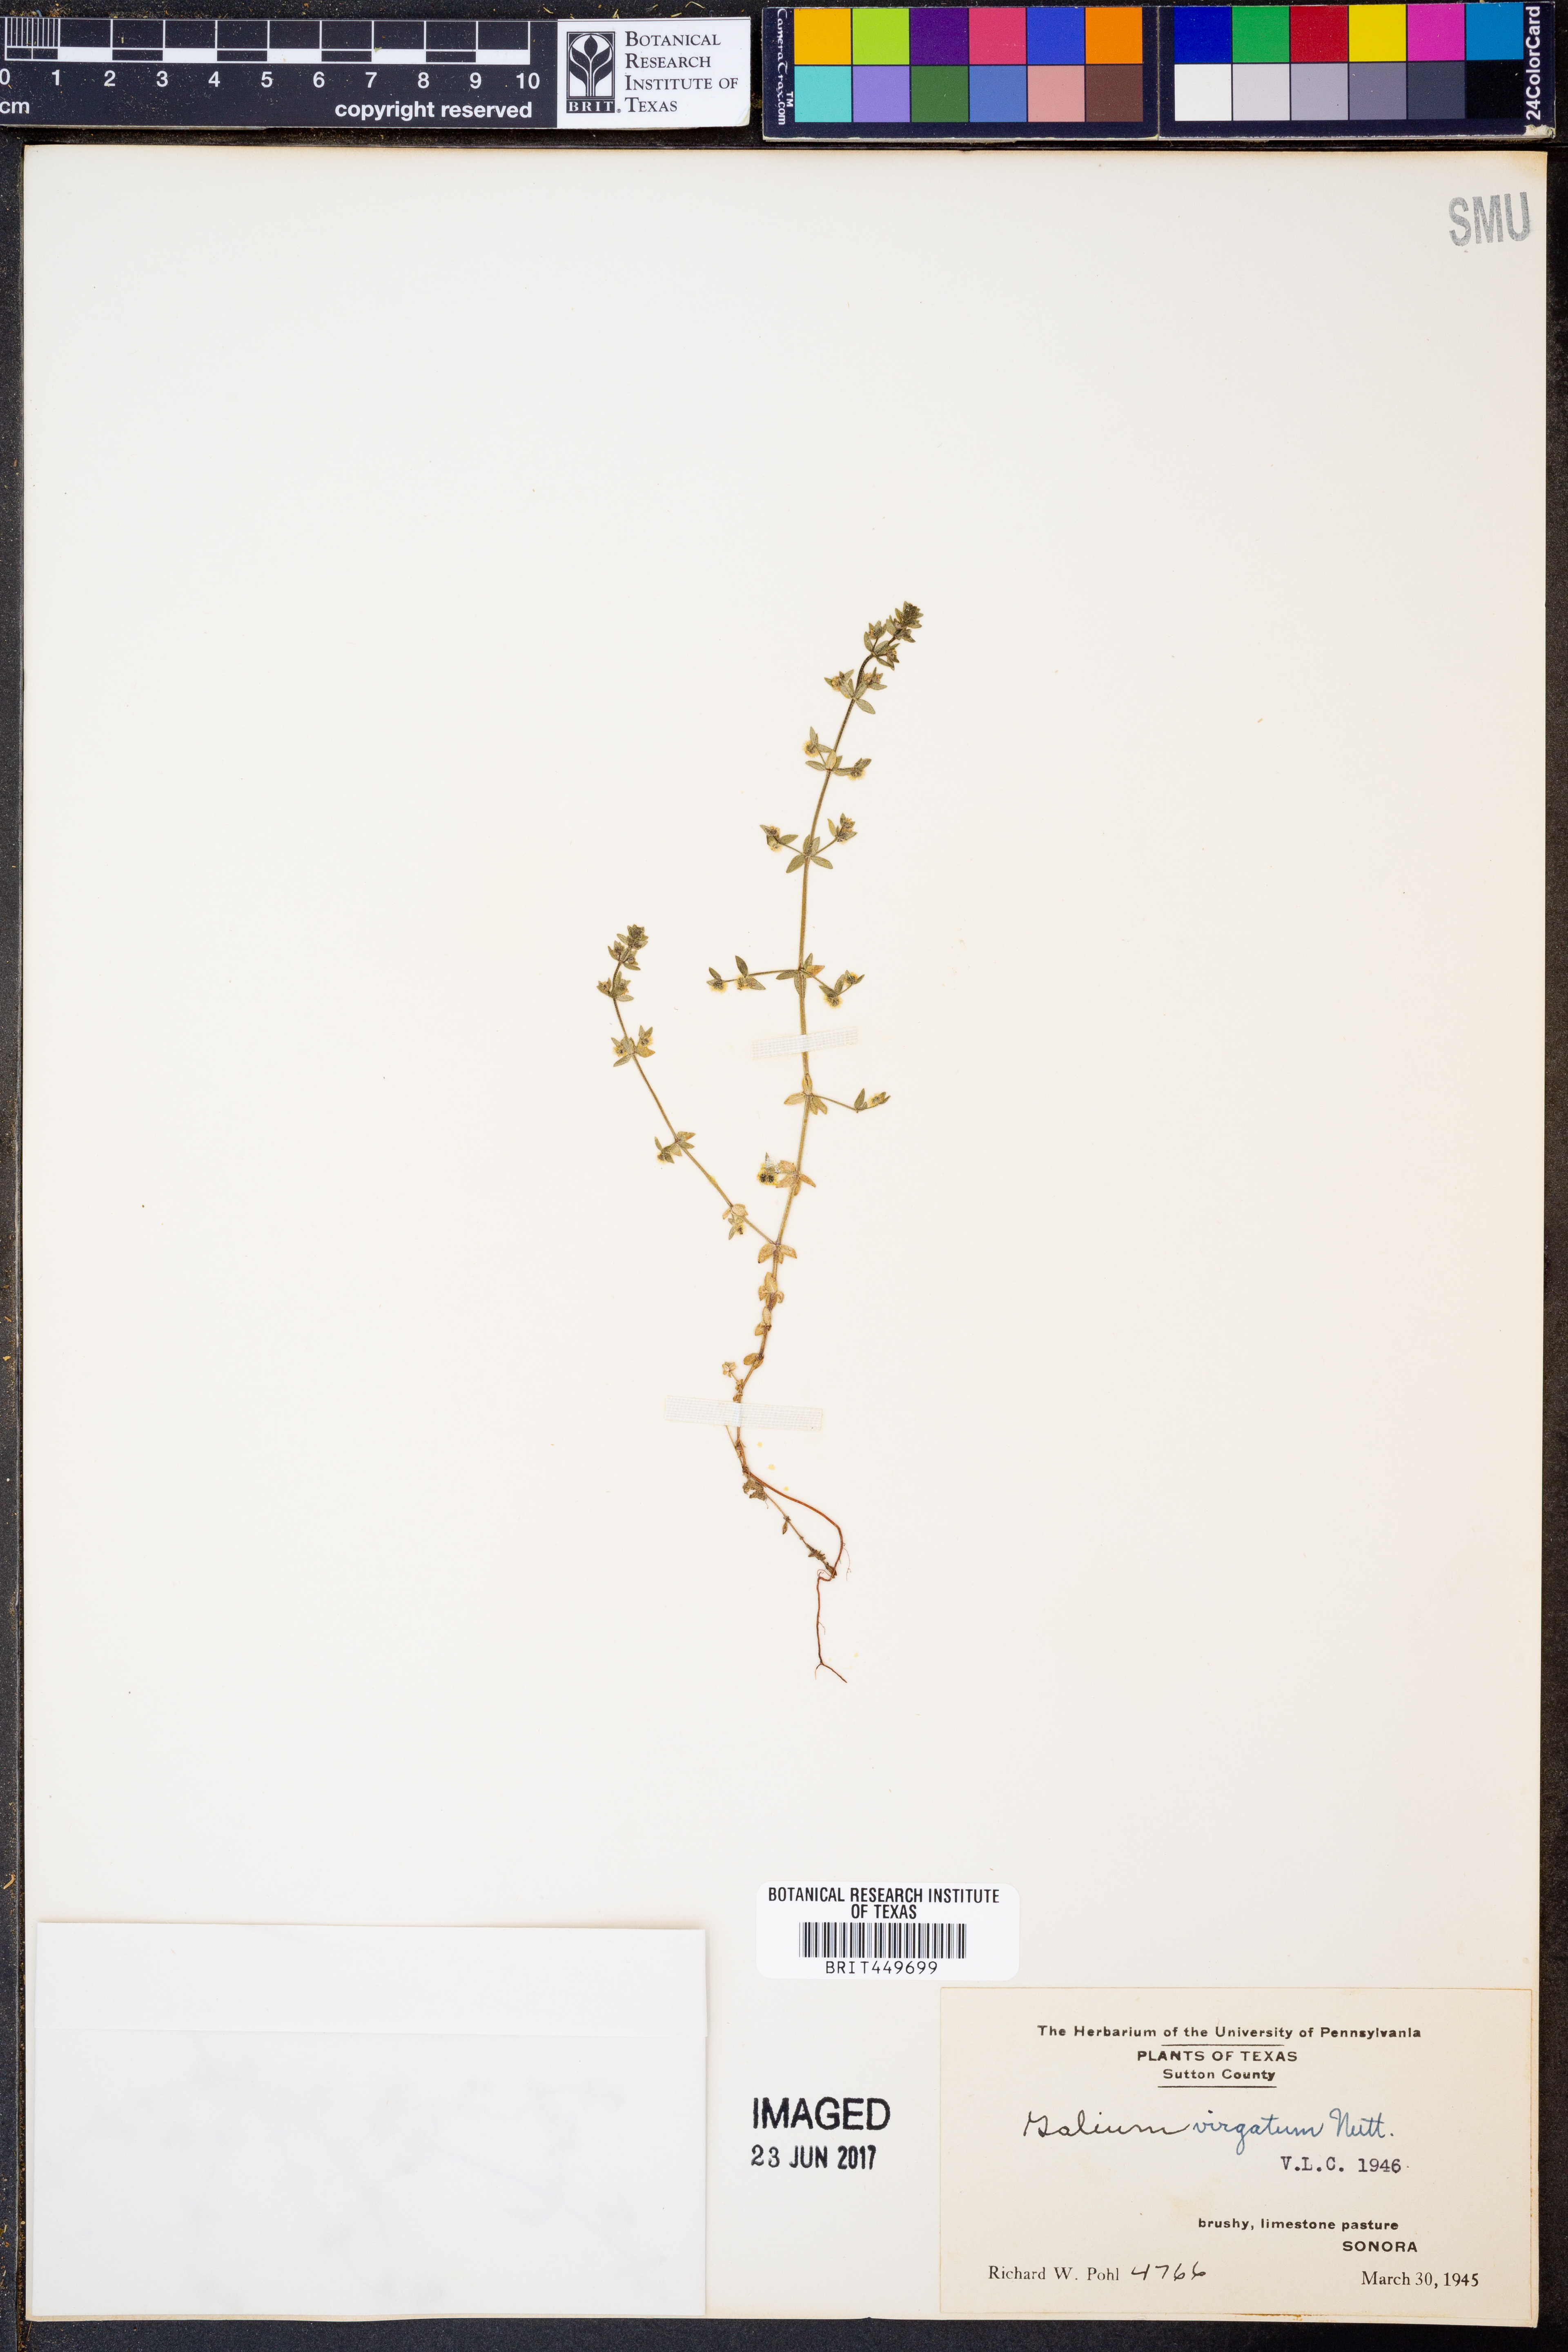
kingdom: Plantae
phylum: Tracheophyta
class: Magnoliopsida
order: Gentianales
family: Rubiaceae
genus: Galium
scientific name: Galium virgatum
